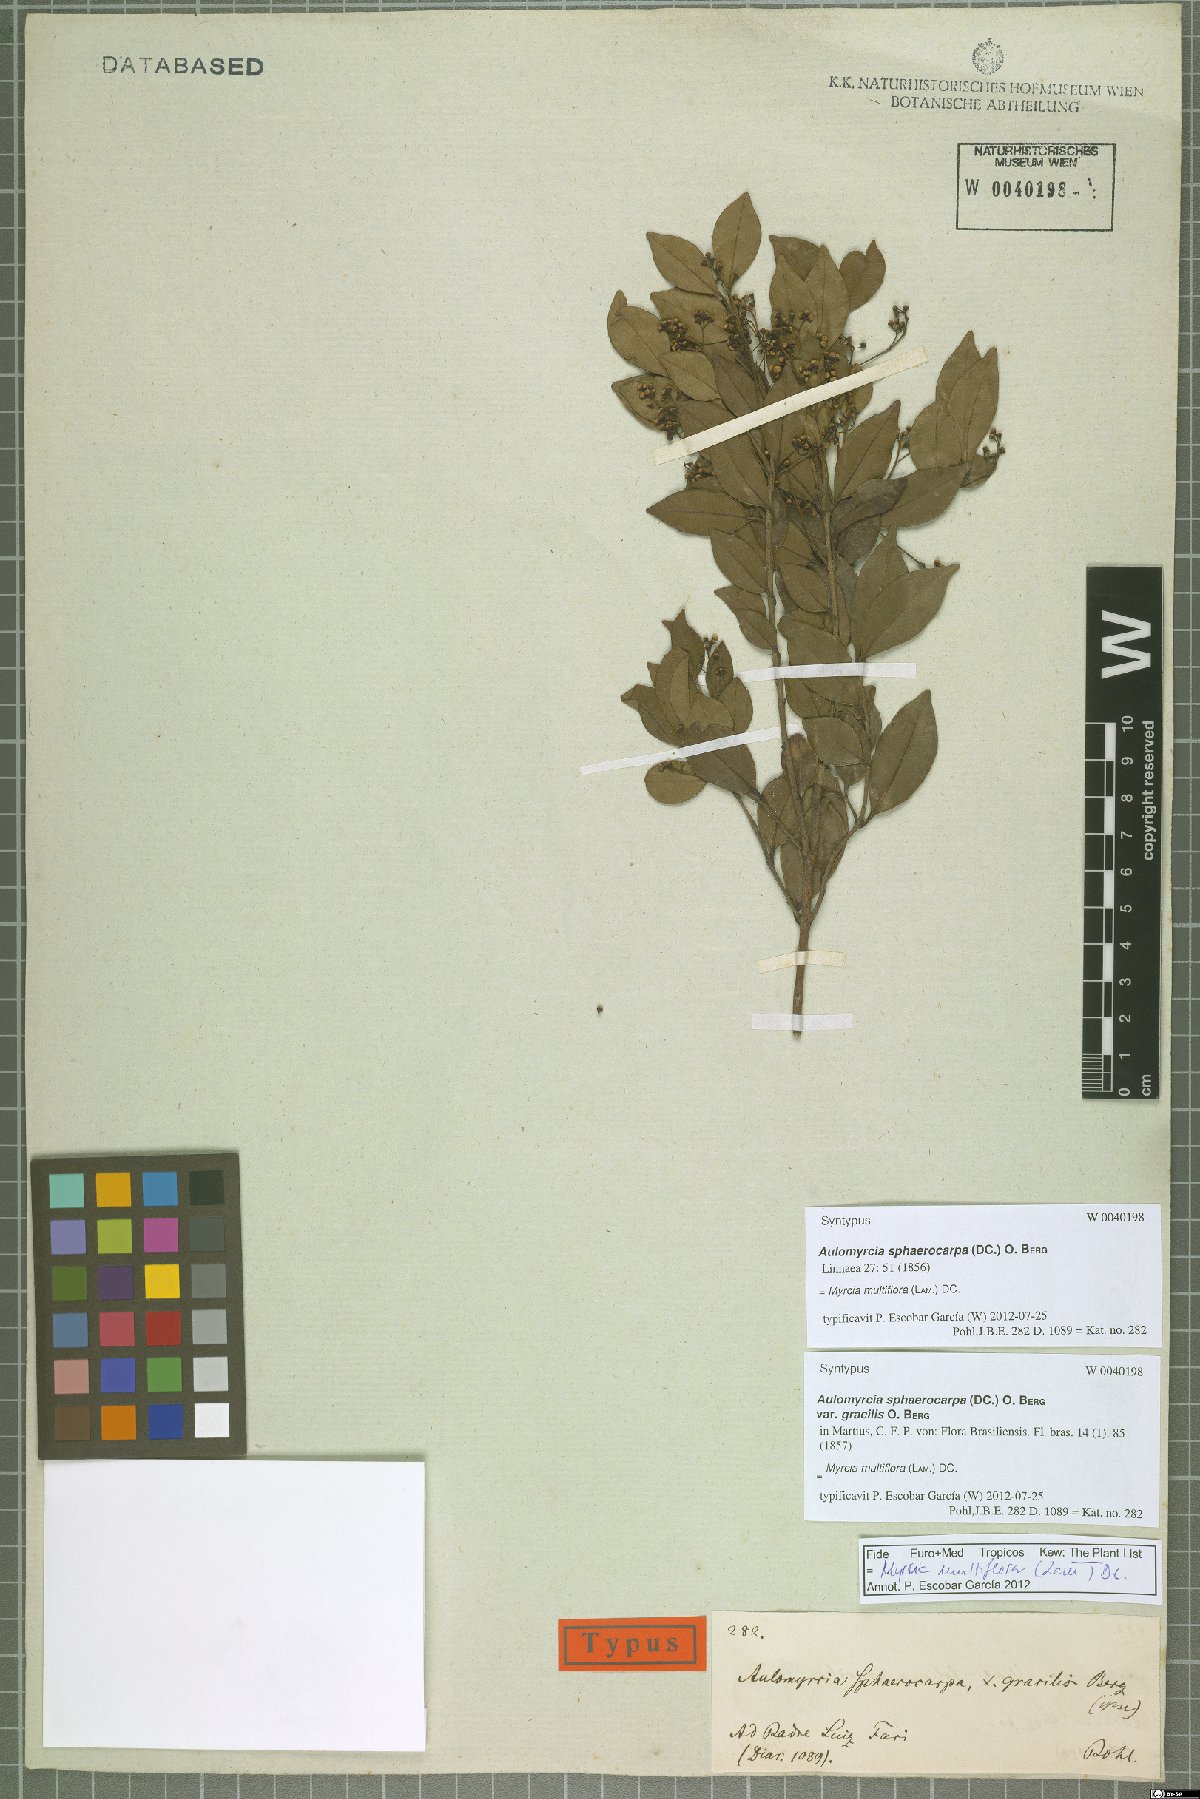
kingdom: Plantae
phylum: Tracheophyta
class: Magnoliopsida
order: Myrtales
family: Myrtaceae
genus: Myrcia
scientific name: Myrcia multiflora
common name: Pedra hume
